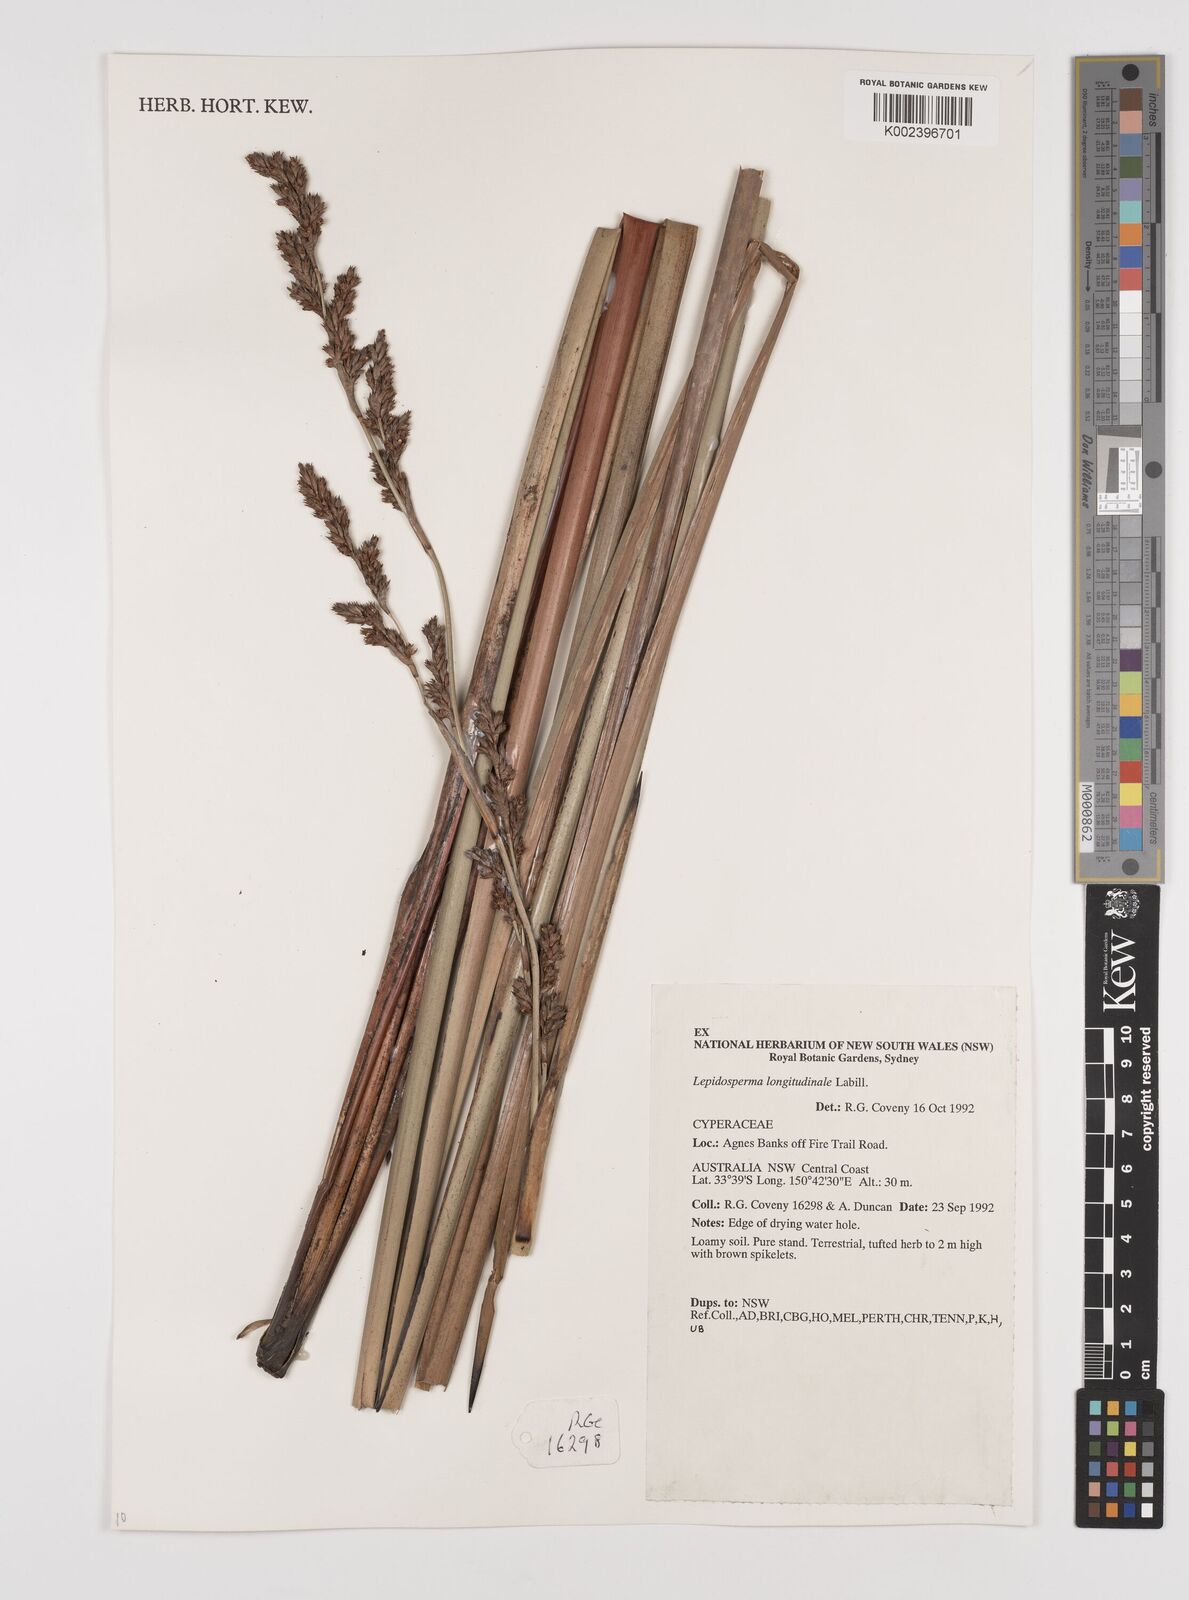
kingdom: Plantae
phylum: Tracheophyta
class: Liliopsida
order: Poales
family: Cyperaceae
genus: Lepidosperma
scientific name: Lepidosperma longitudinale
